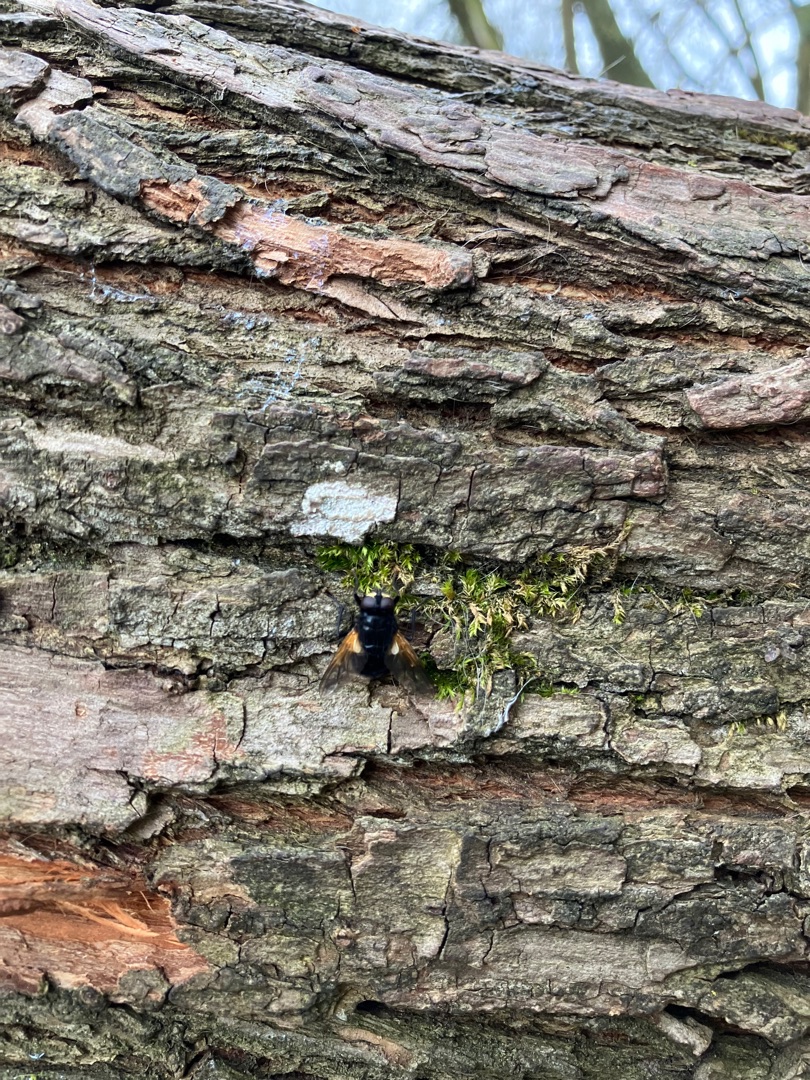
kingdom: Animalia
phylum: Arthropoda
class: Insecta
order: Diptera
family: Muscidae
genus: Mesembrina
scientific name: Mesembrina meridiana
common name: Gulvinget flue
